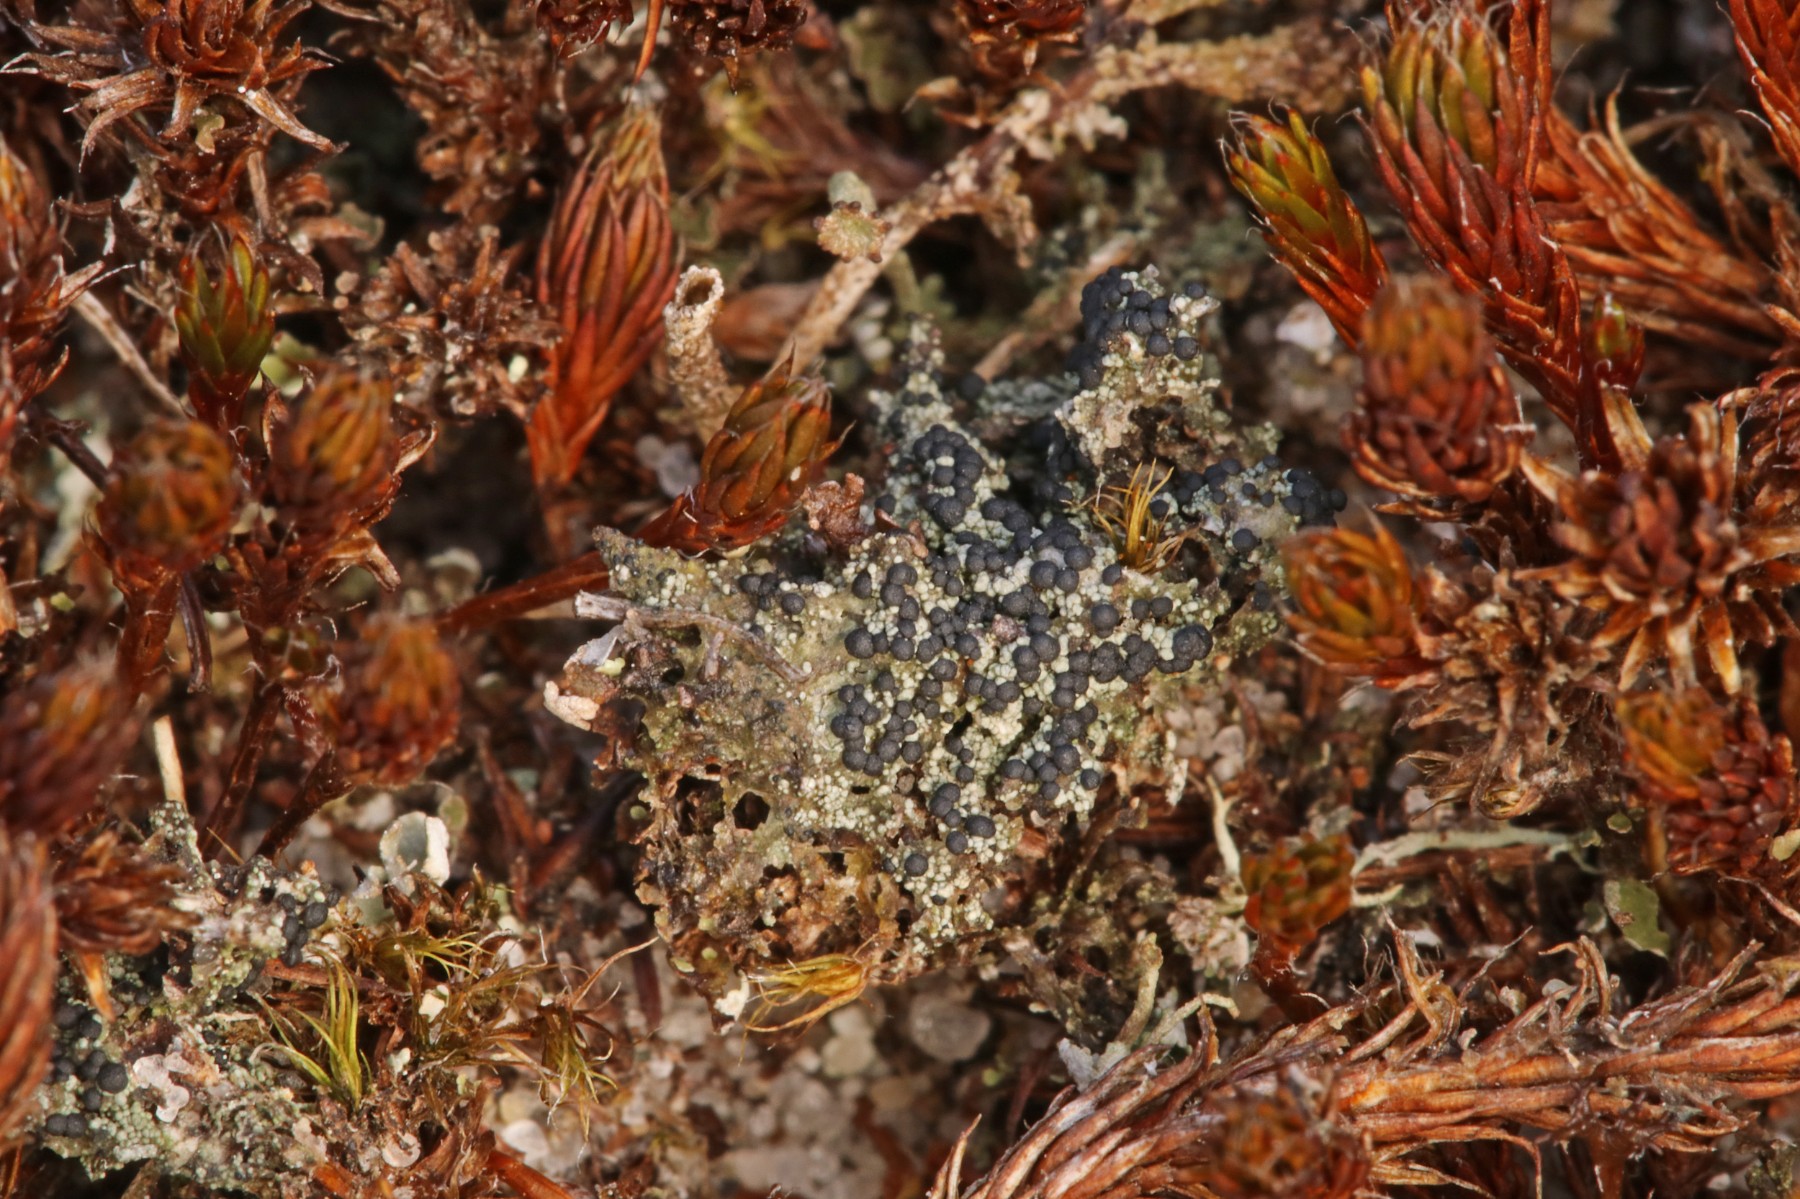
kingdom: Fungi
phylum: Ascomycota
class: Lecanoromycetes
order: Lecanorales
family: Byssolomataceae
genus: Micarea
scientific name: Micarea lignaria
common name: tørve-knaplav
